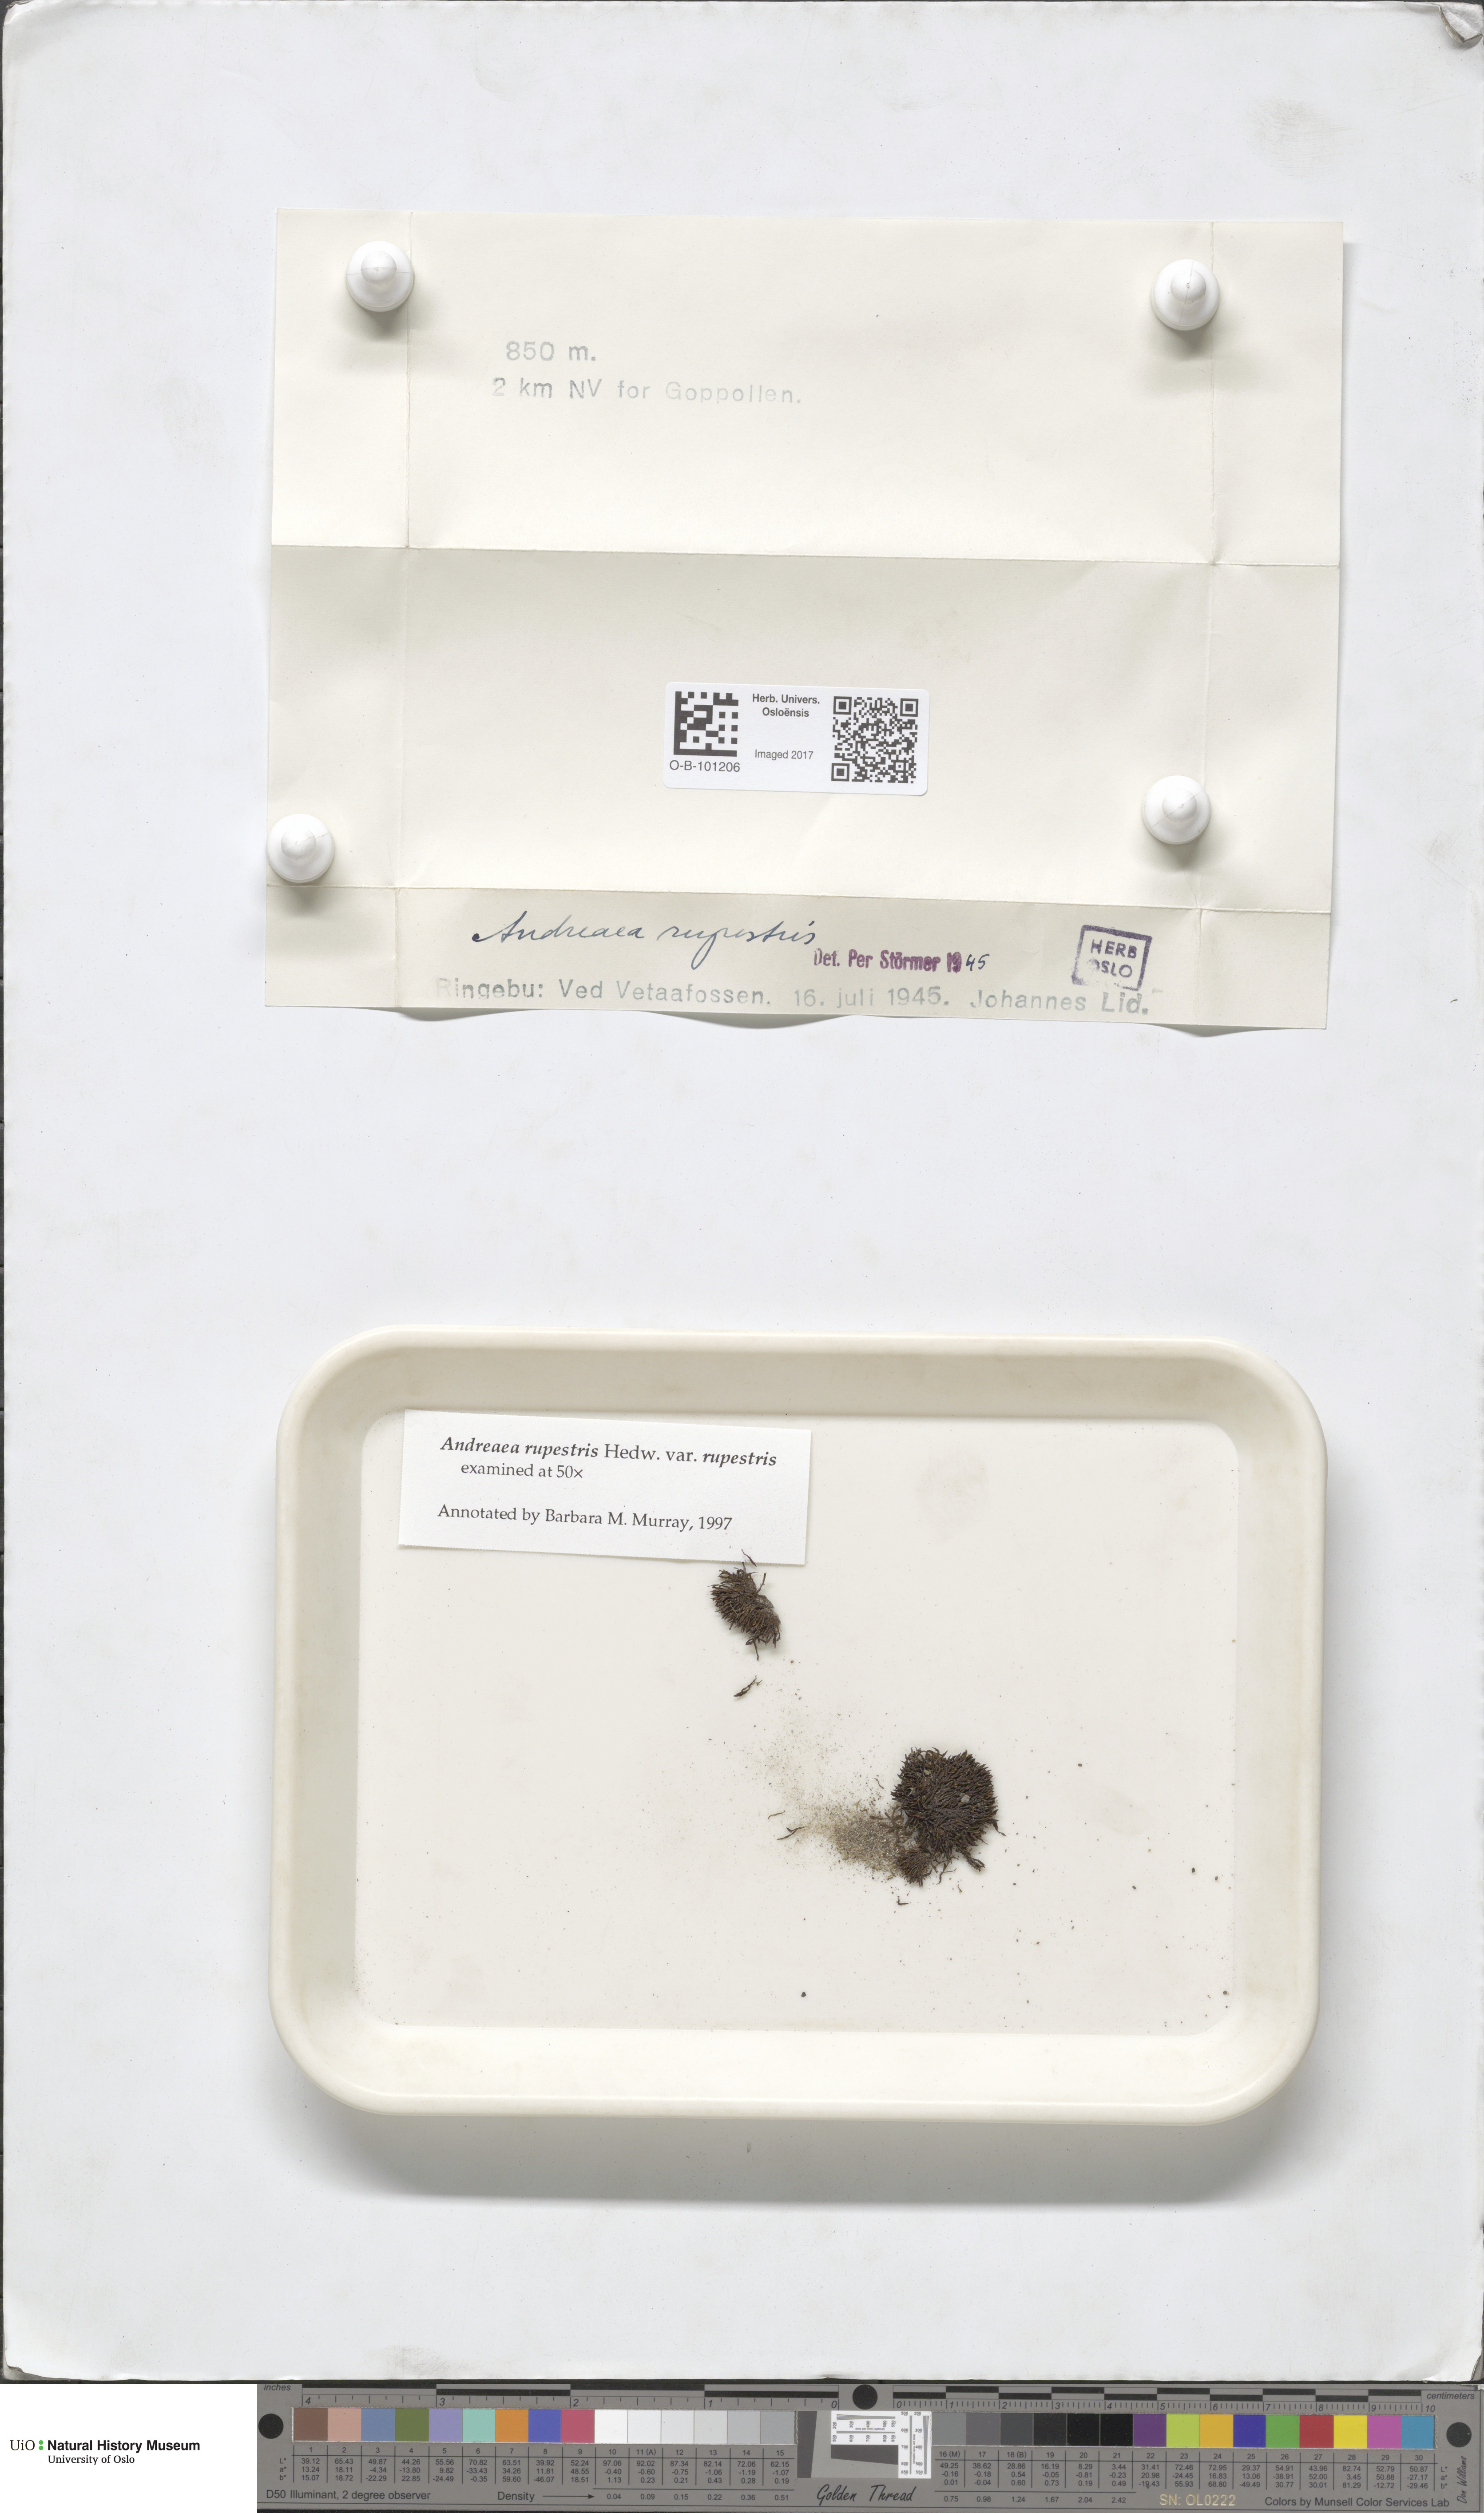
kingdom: Plantae
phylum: Bryophyta
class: Andreaeopsida
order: Andreaeales
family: Andreaeaceae
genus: Andreaea
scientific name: Andreaea rupestris
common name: Black rock moss
